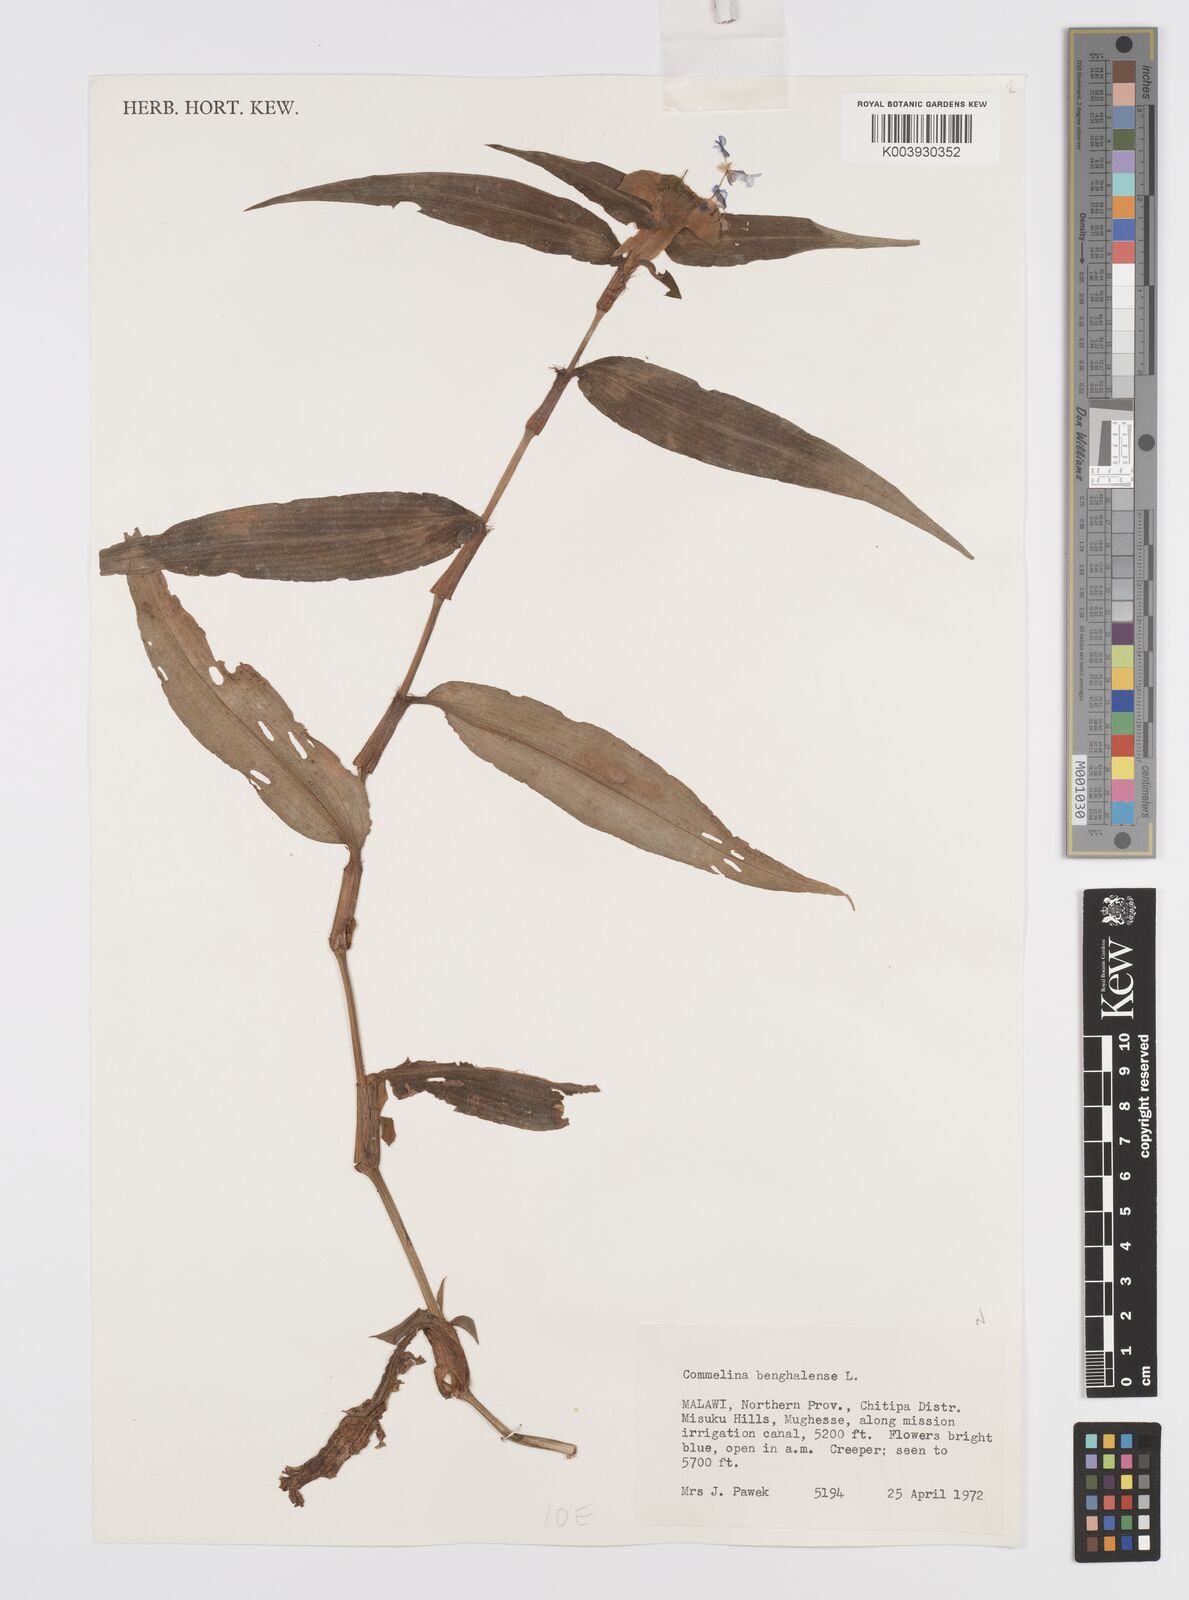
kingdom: Plantae
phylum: Tracheophyta
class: Liliopsida
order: Commelinales
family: Commelinaceae
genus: Commelina
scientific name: Commelina benghalensis
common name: Jio
